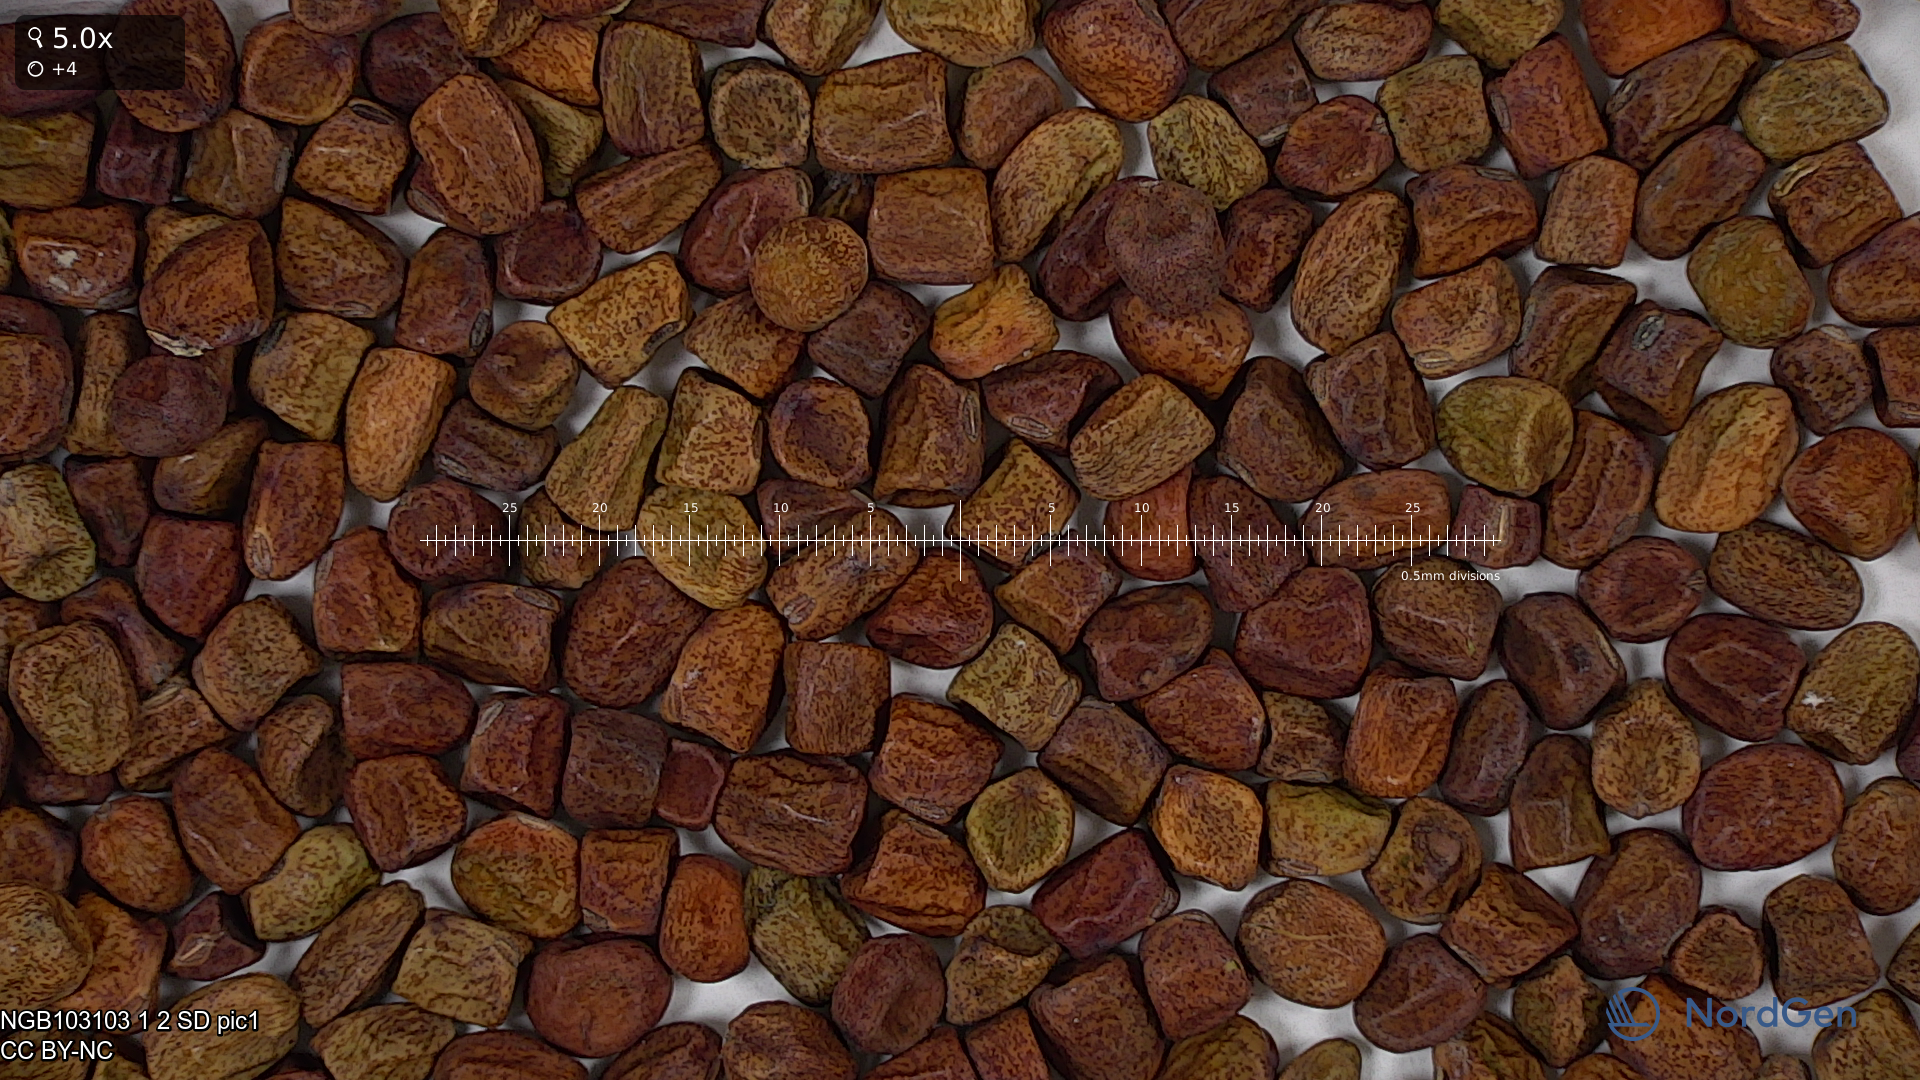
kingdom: Plantae
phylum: Tracheophyta
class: Magnoliopsida
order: Fabales
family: Fabaceae
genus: Lathyrus
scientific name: Lathyrus oleraceus
